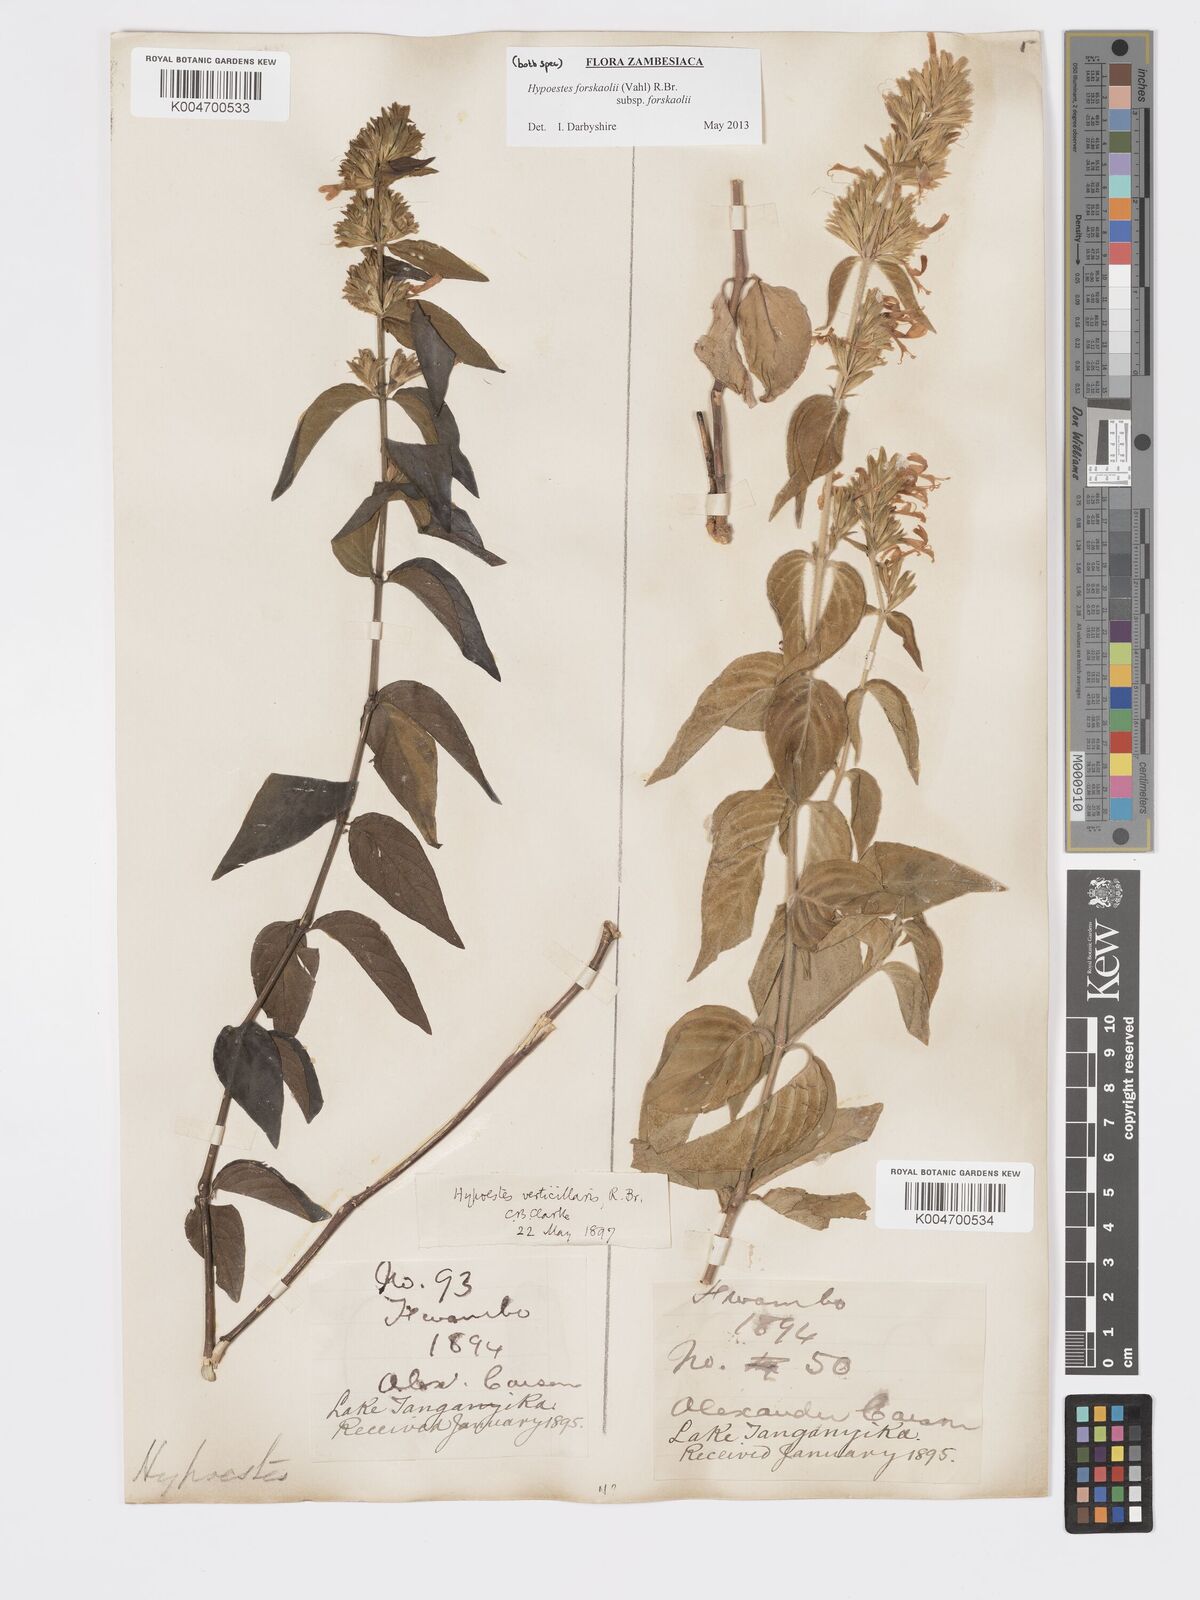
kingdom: Plantae
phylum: Tracheophyta
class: Magnoliopsida
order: Lamiales
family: Acanthaceae
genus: Hypoestes
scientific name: Hypoestes forskaolii
